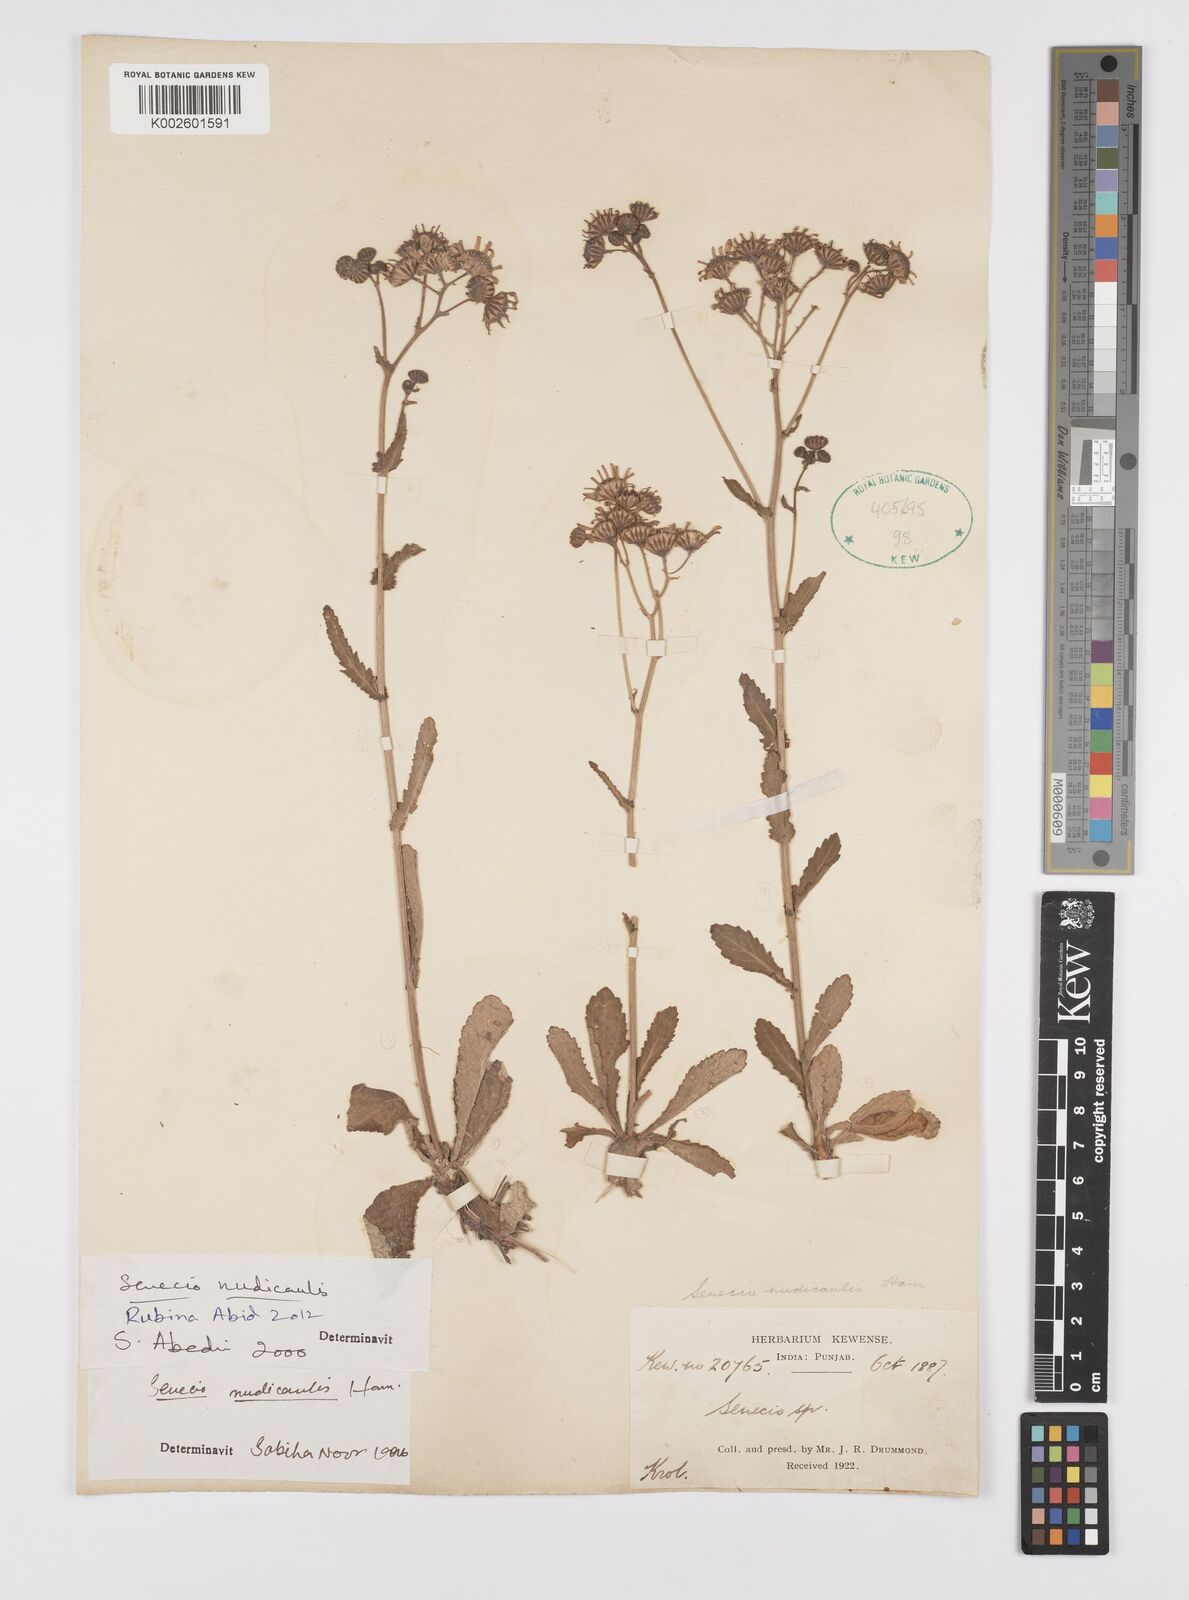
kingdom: Plantae
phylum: Tracheophyta
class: Magnoliopsida
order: Asterales
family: Asteraceae
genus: Jacobaea
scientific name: Jacobaea nudicaulis
